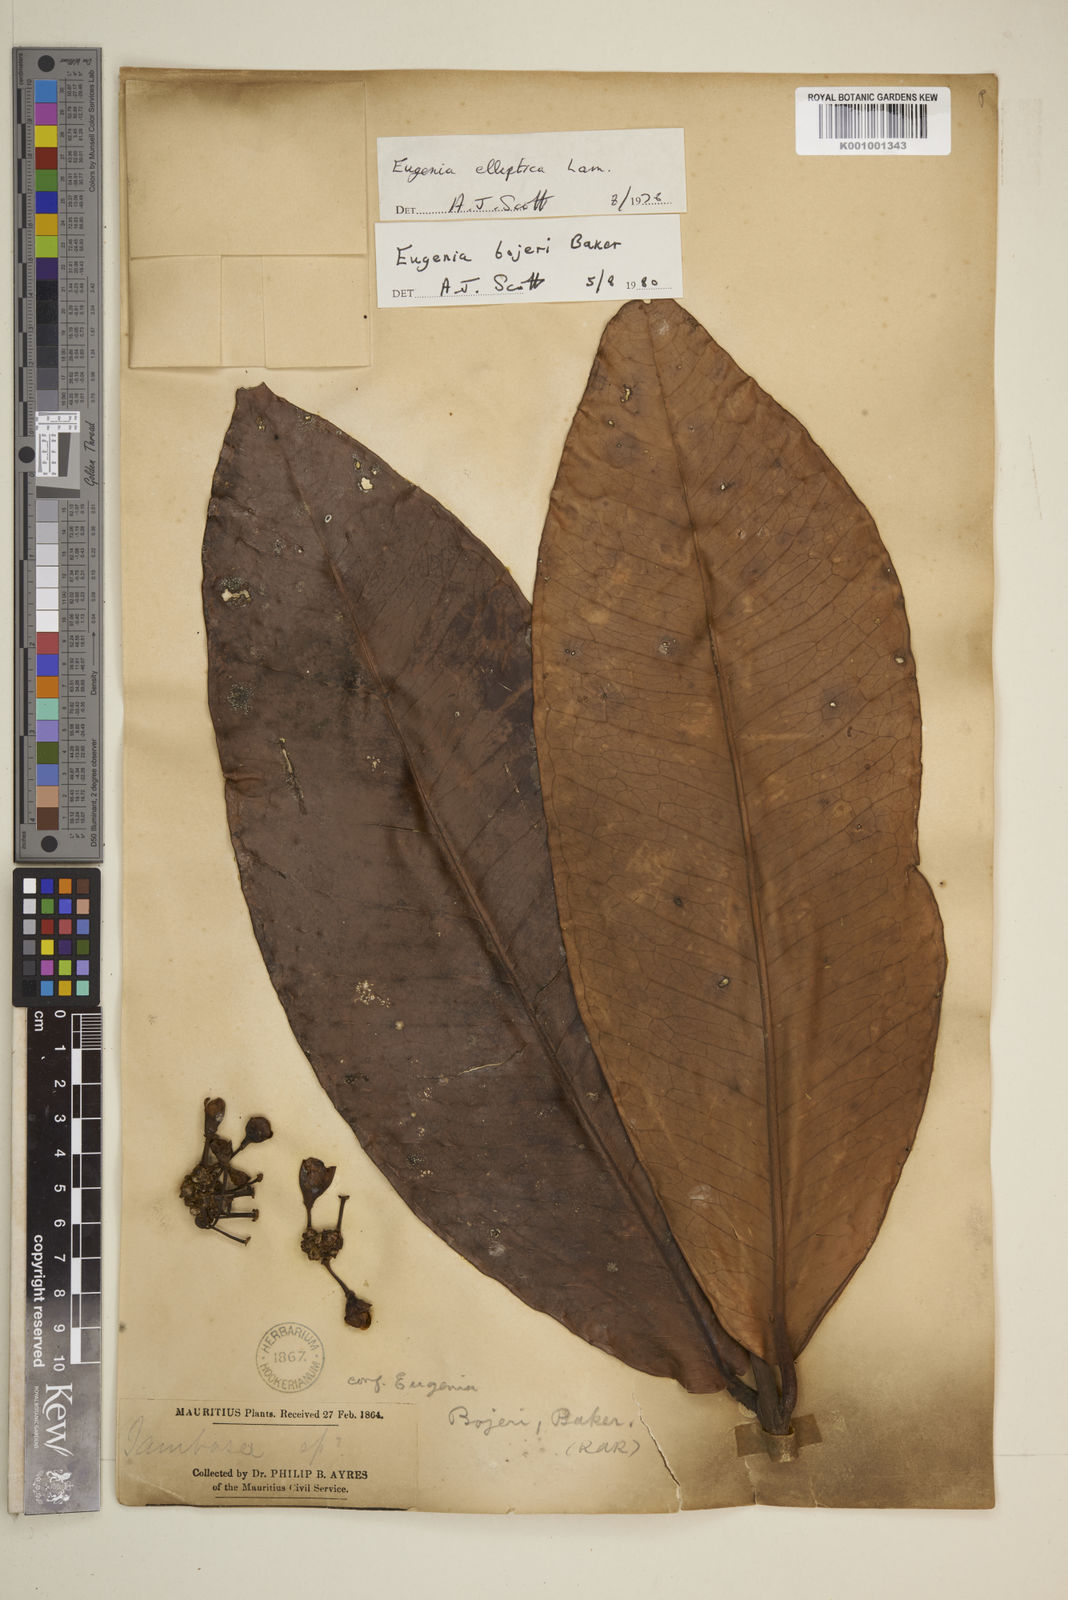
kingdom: Plantae
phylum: Tracheophyta
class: Magnoliopsida
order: Myrtales
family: Myrtaceae
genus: Eugenia
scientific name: Eugenia elliptica
